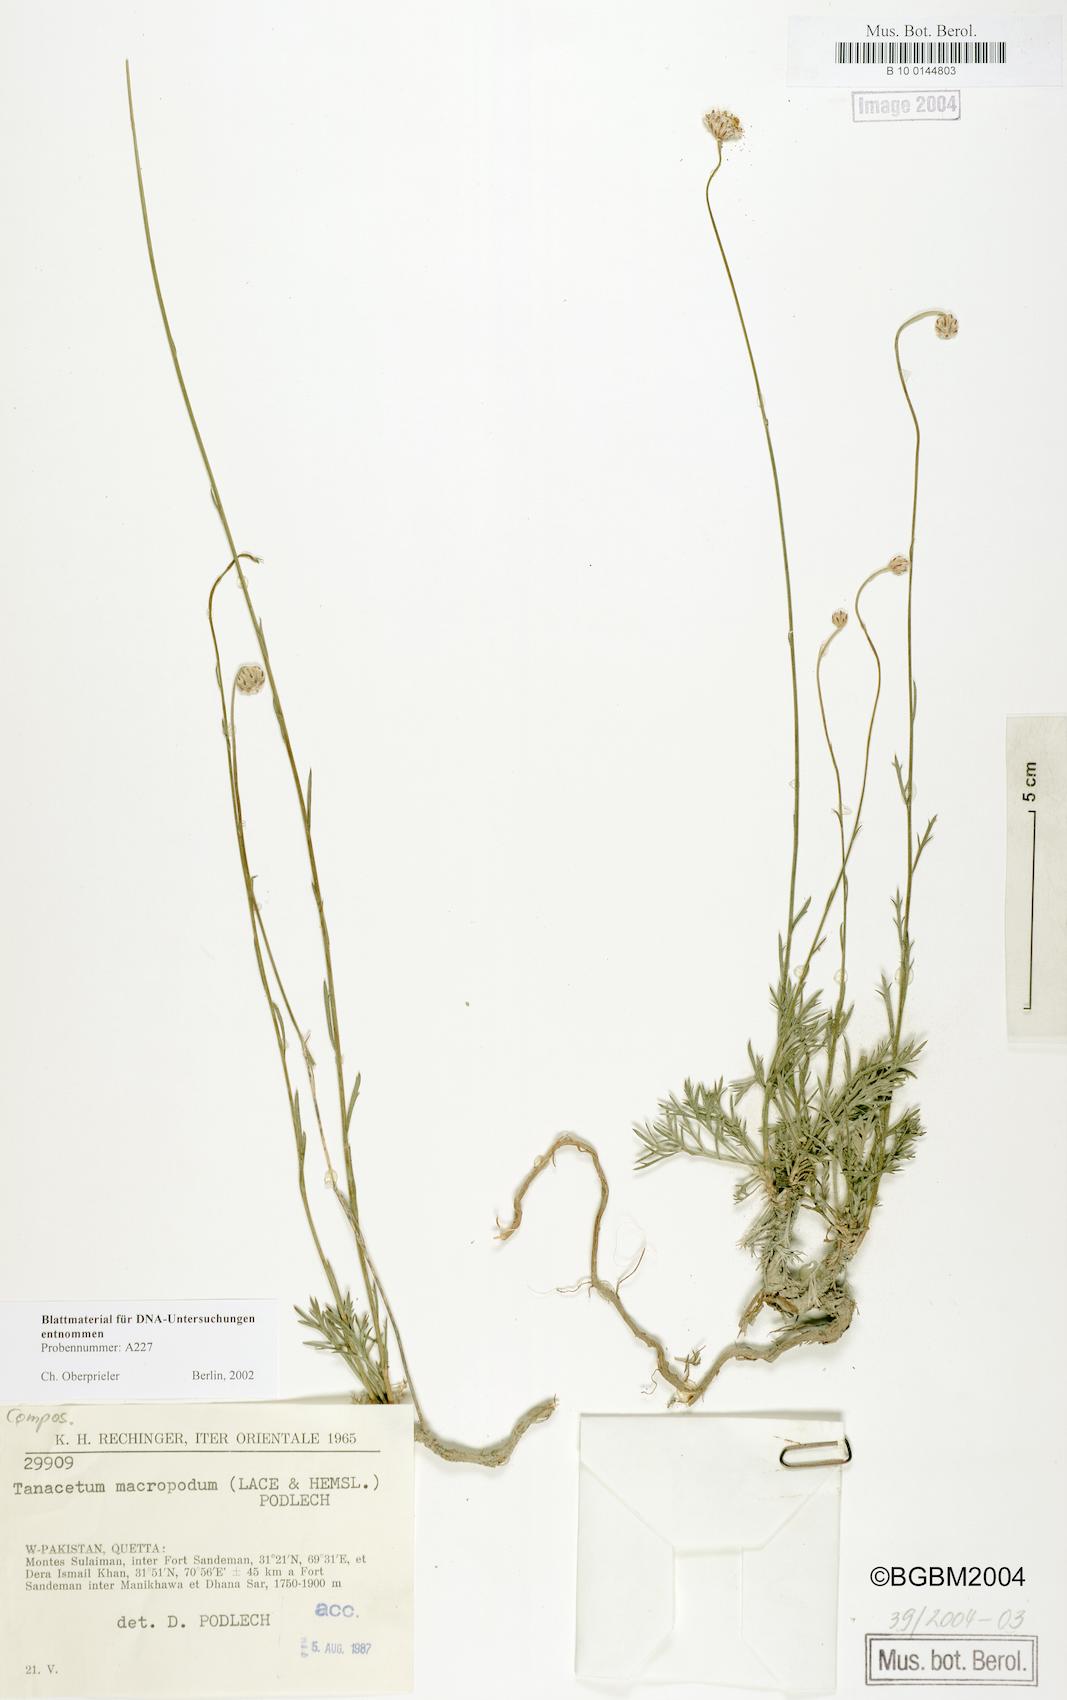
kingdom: Plantae
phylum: Tracheophyta
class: Magnoliopsida
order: Asterales
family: Asteraceae
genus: Xylanthemum
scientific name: Xylanthemum macropodum
